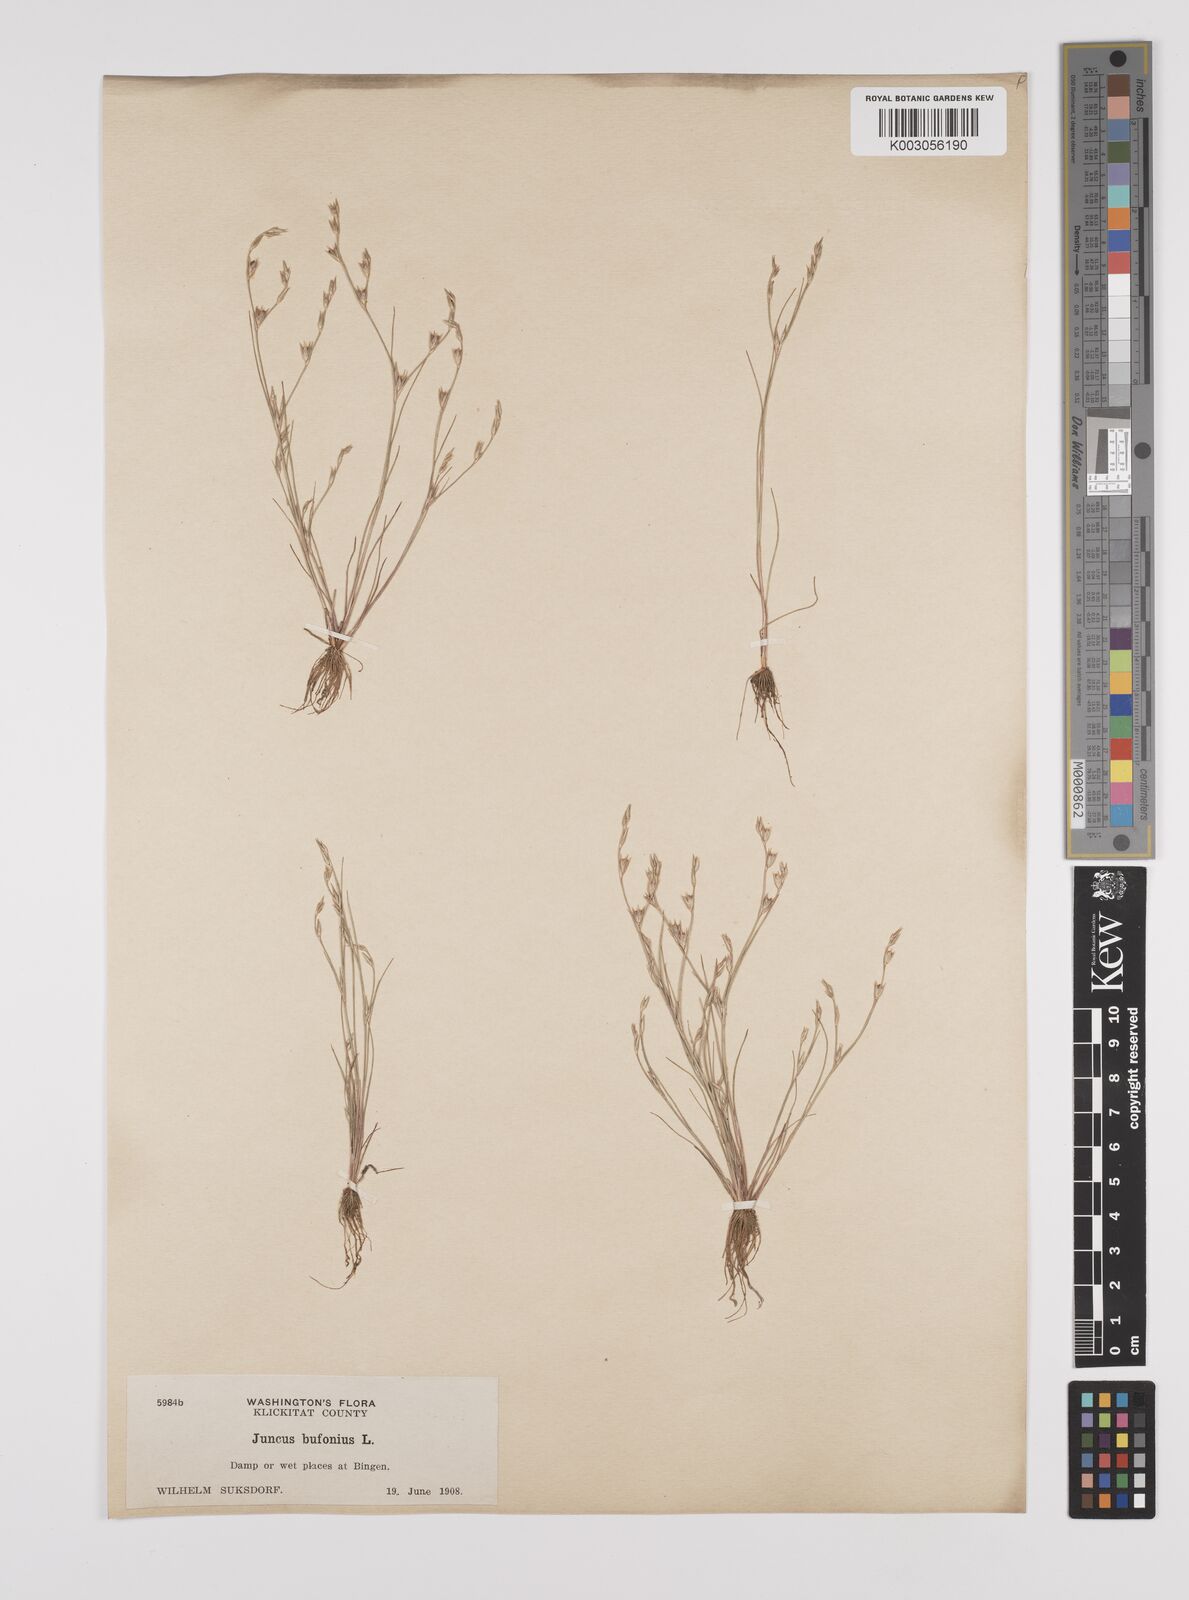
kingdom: Plantae
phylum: Tracheophyta
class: Liliopsida
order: Poales
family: Juncaceae
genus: Juncus
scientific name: Juncus bufonius
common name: Toad rush
